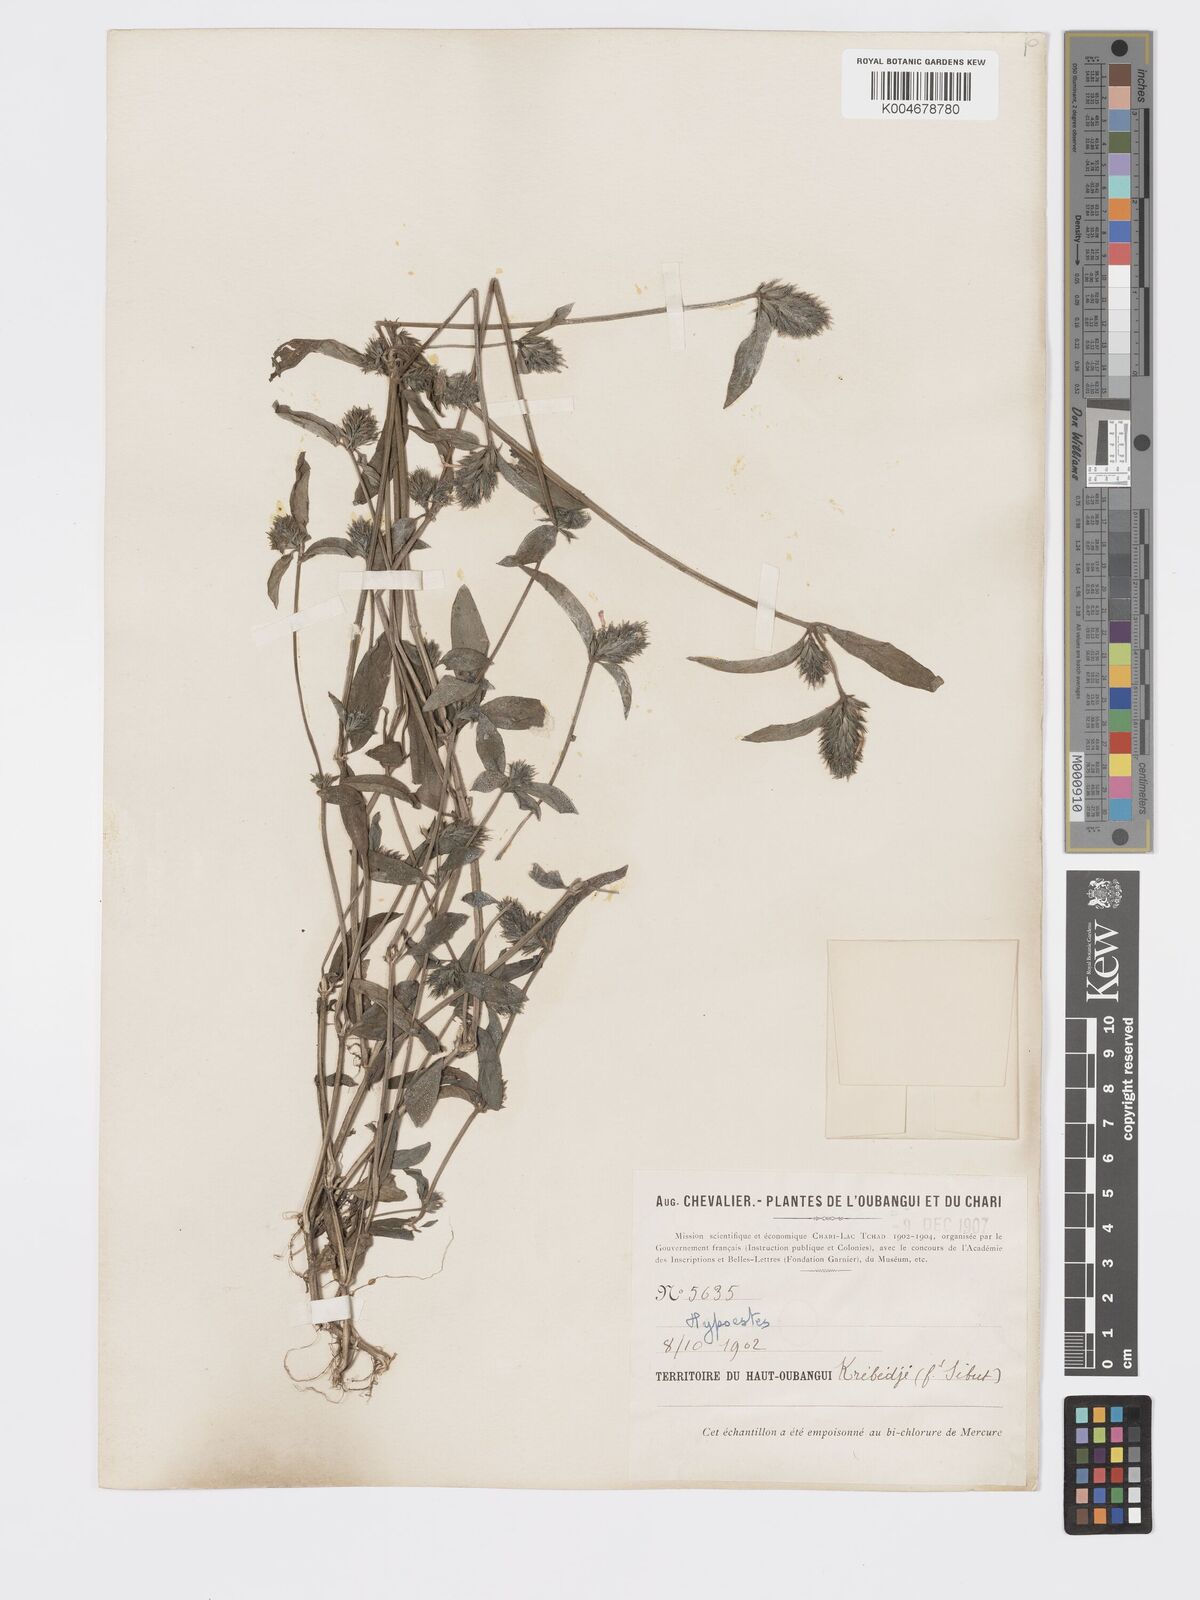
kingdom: Plantae
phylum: Tracheophyta
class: Magnoliopsida
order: Lamiales
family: Acanthaceae
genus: Hypoestes
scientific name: Hypoestes cancellata
